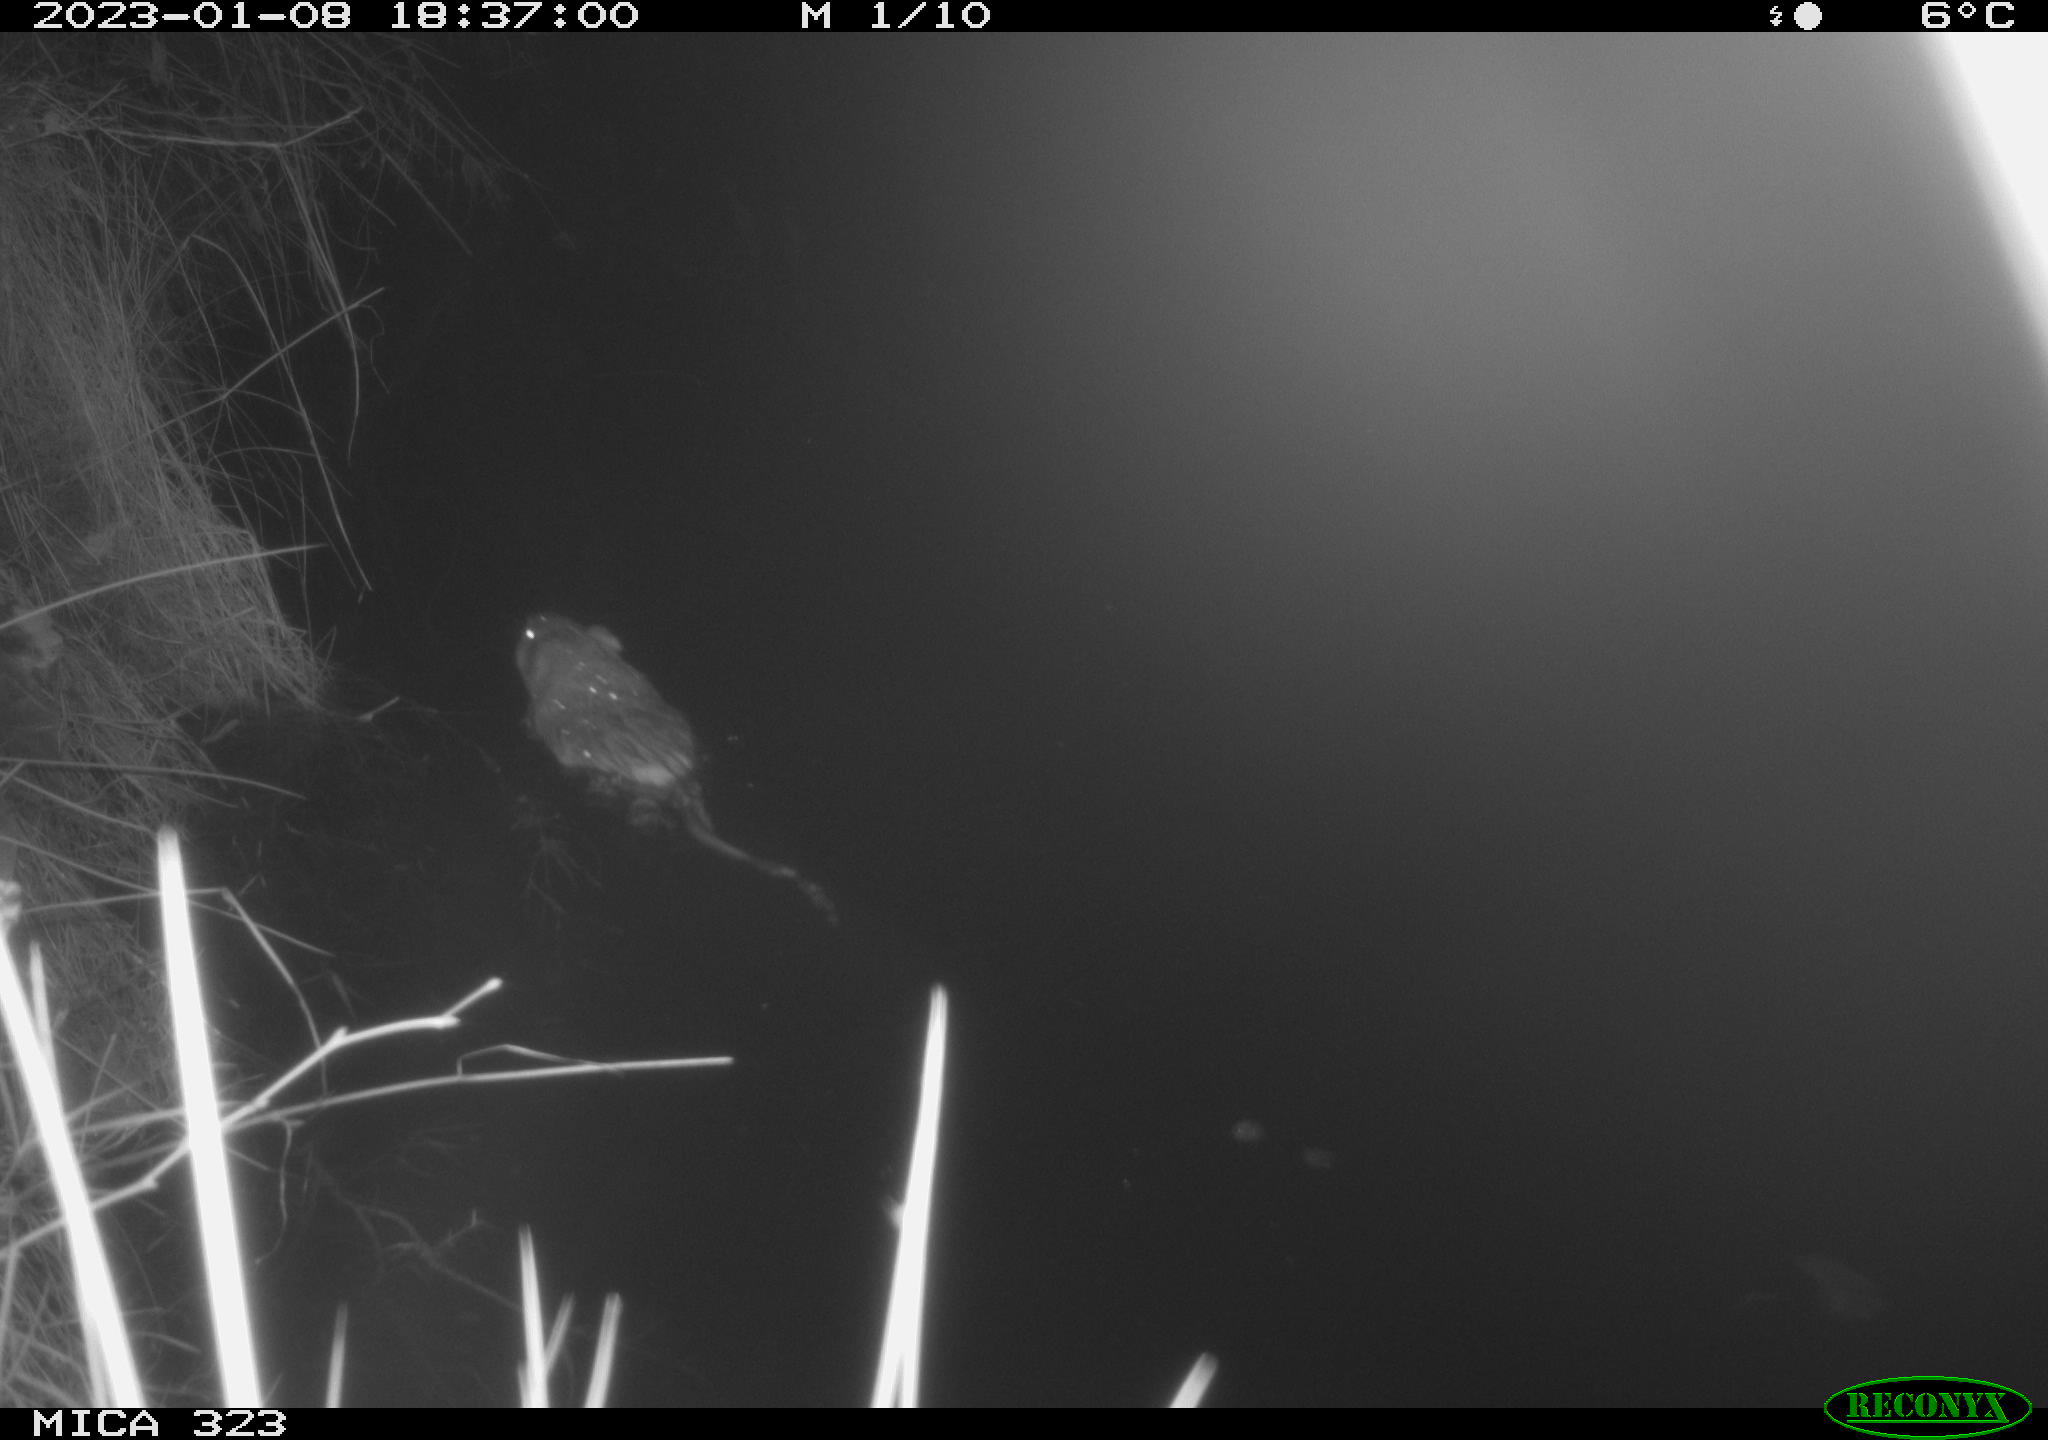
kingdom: Animalia
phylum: Chordata
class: Mammalia
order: Rodentia
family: Cricetidae
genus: Ondatra
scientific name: Ondatra zibethicus
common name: Muskrat
